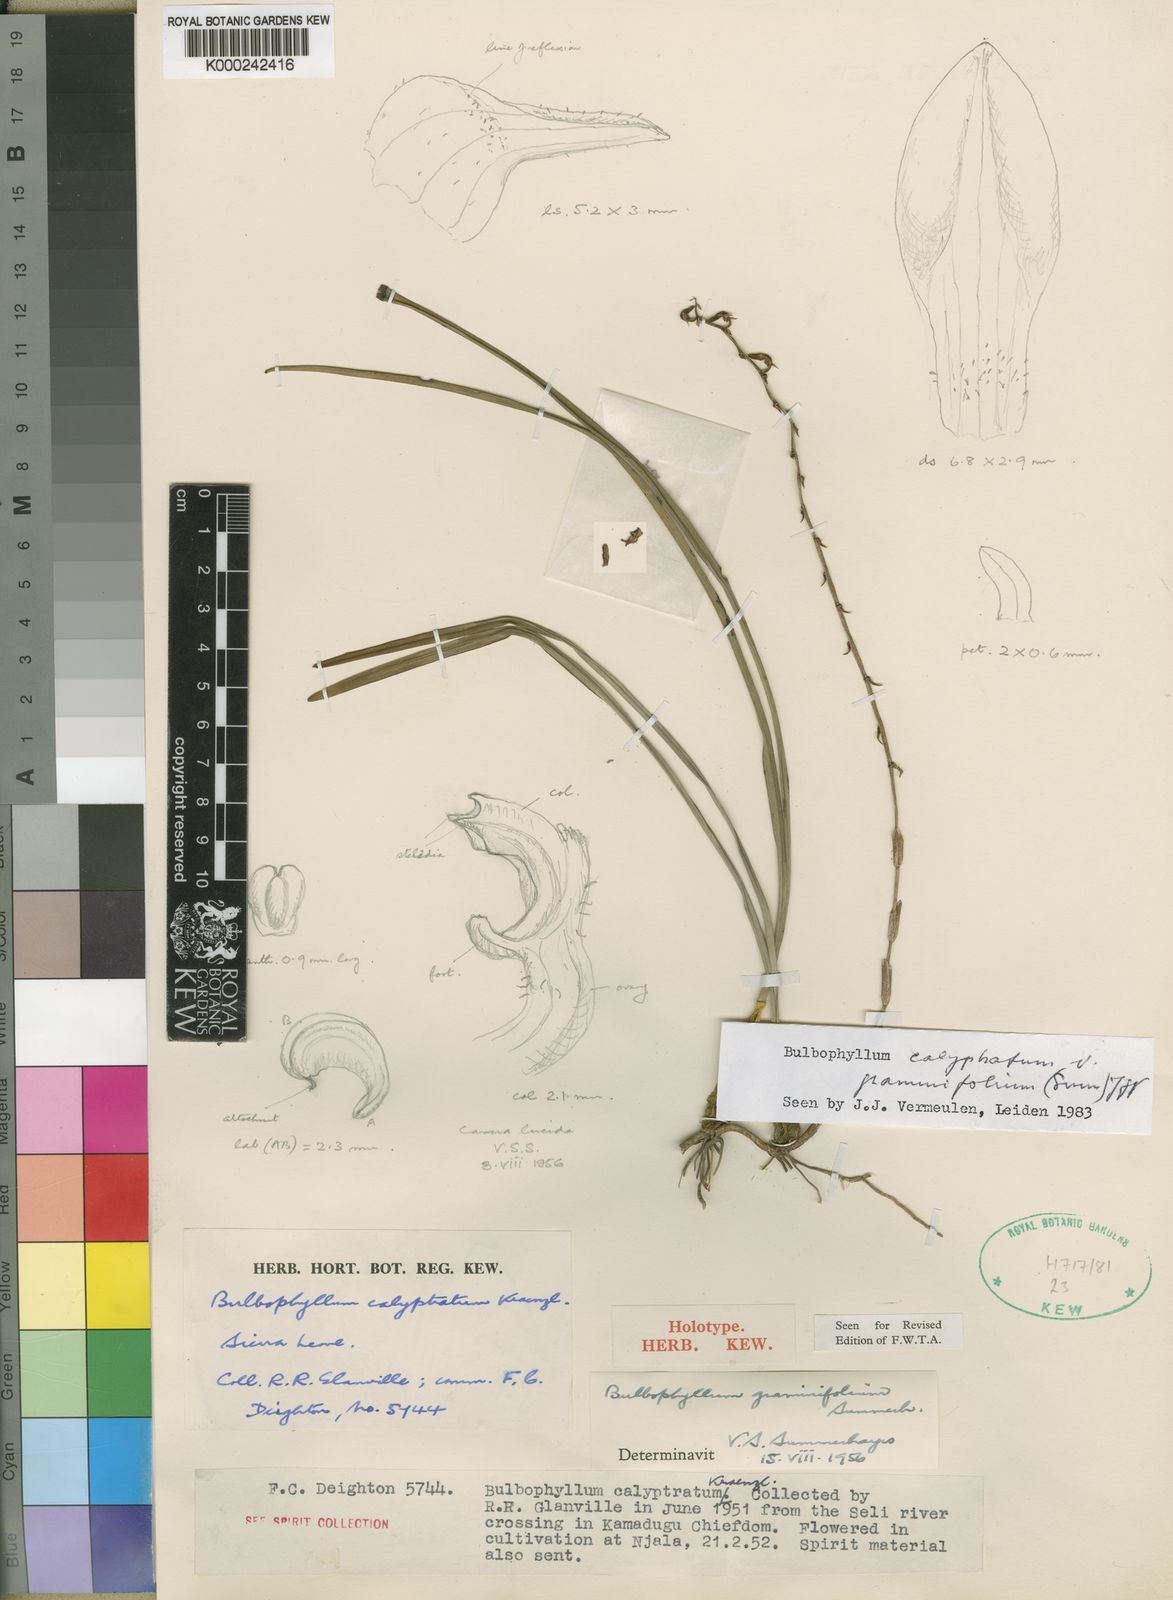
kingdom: Plantae
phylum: Tracheophyta
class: Liliopsida
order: Asparagales
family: Orchidaceae
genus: Bulbophyllum
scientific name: Bulbophyllum calyptratum
